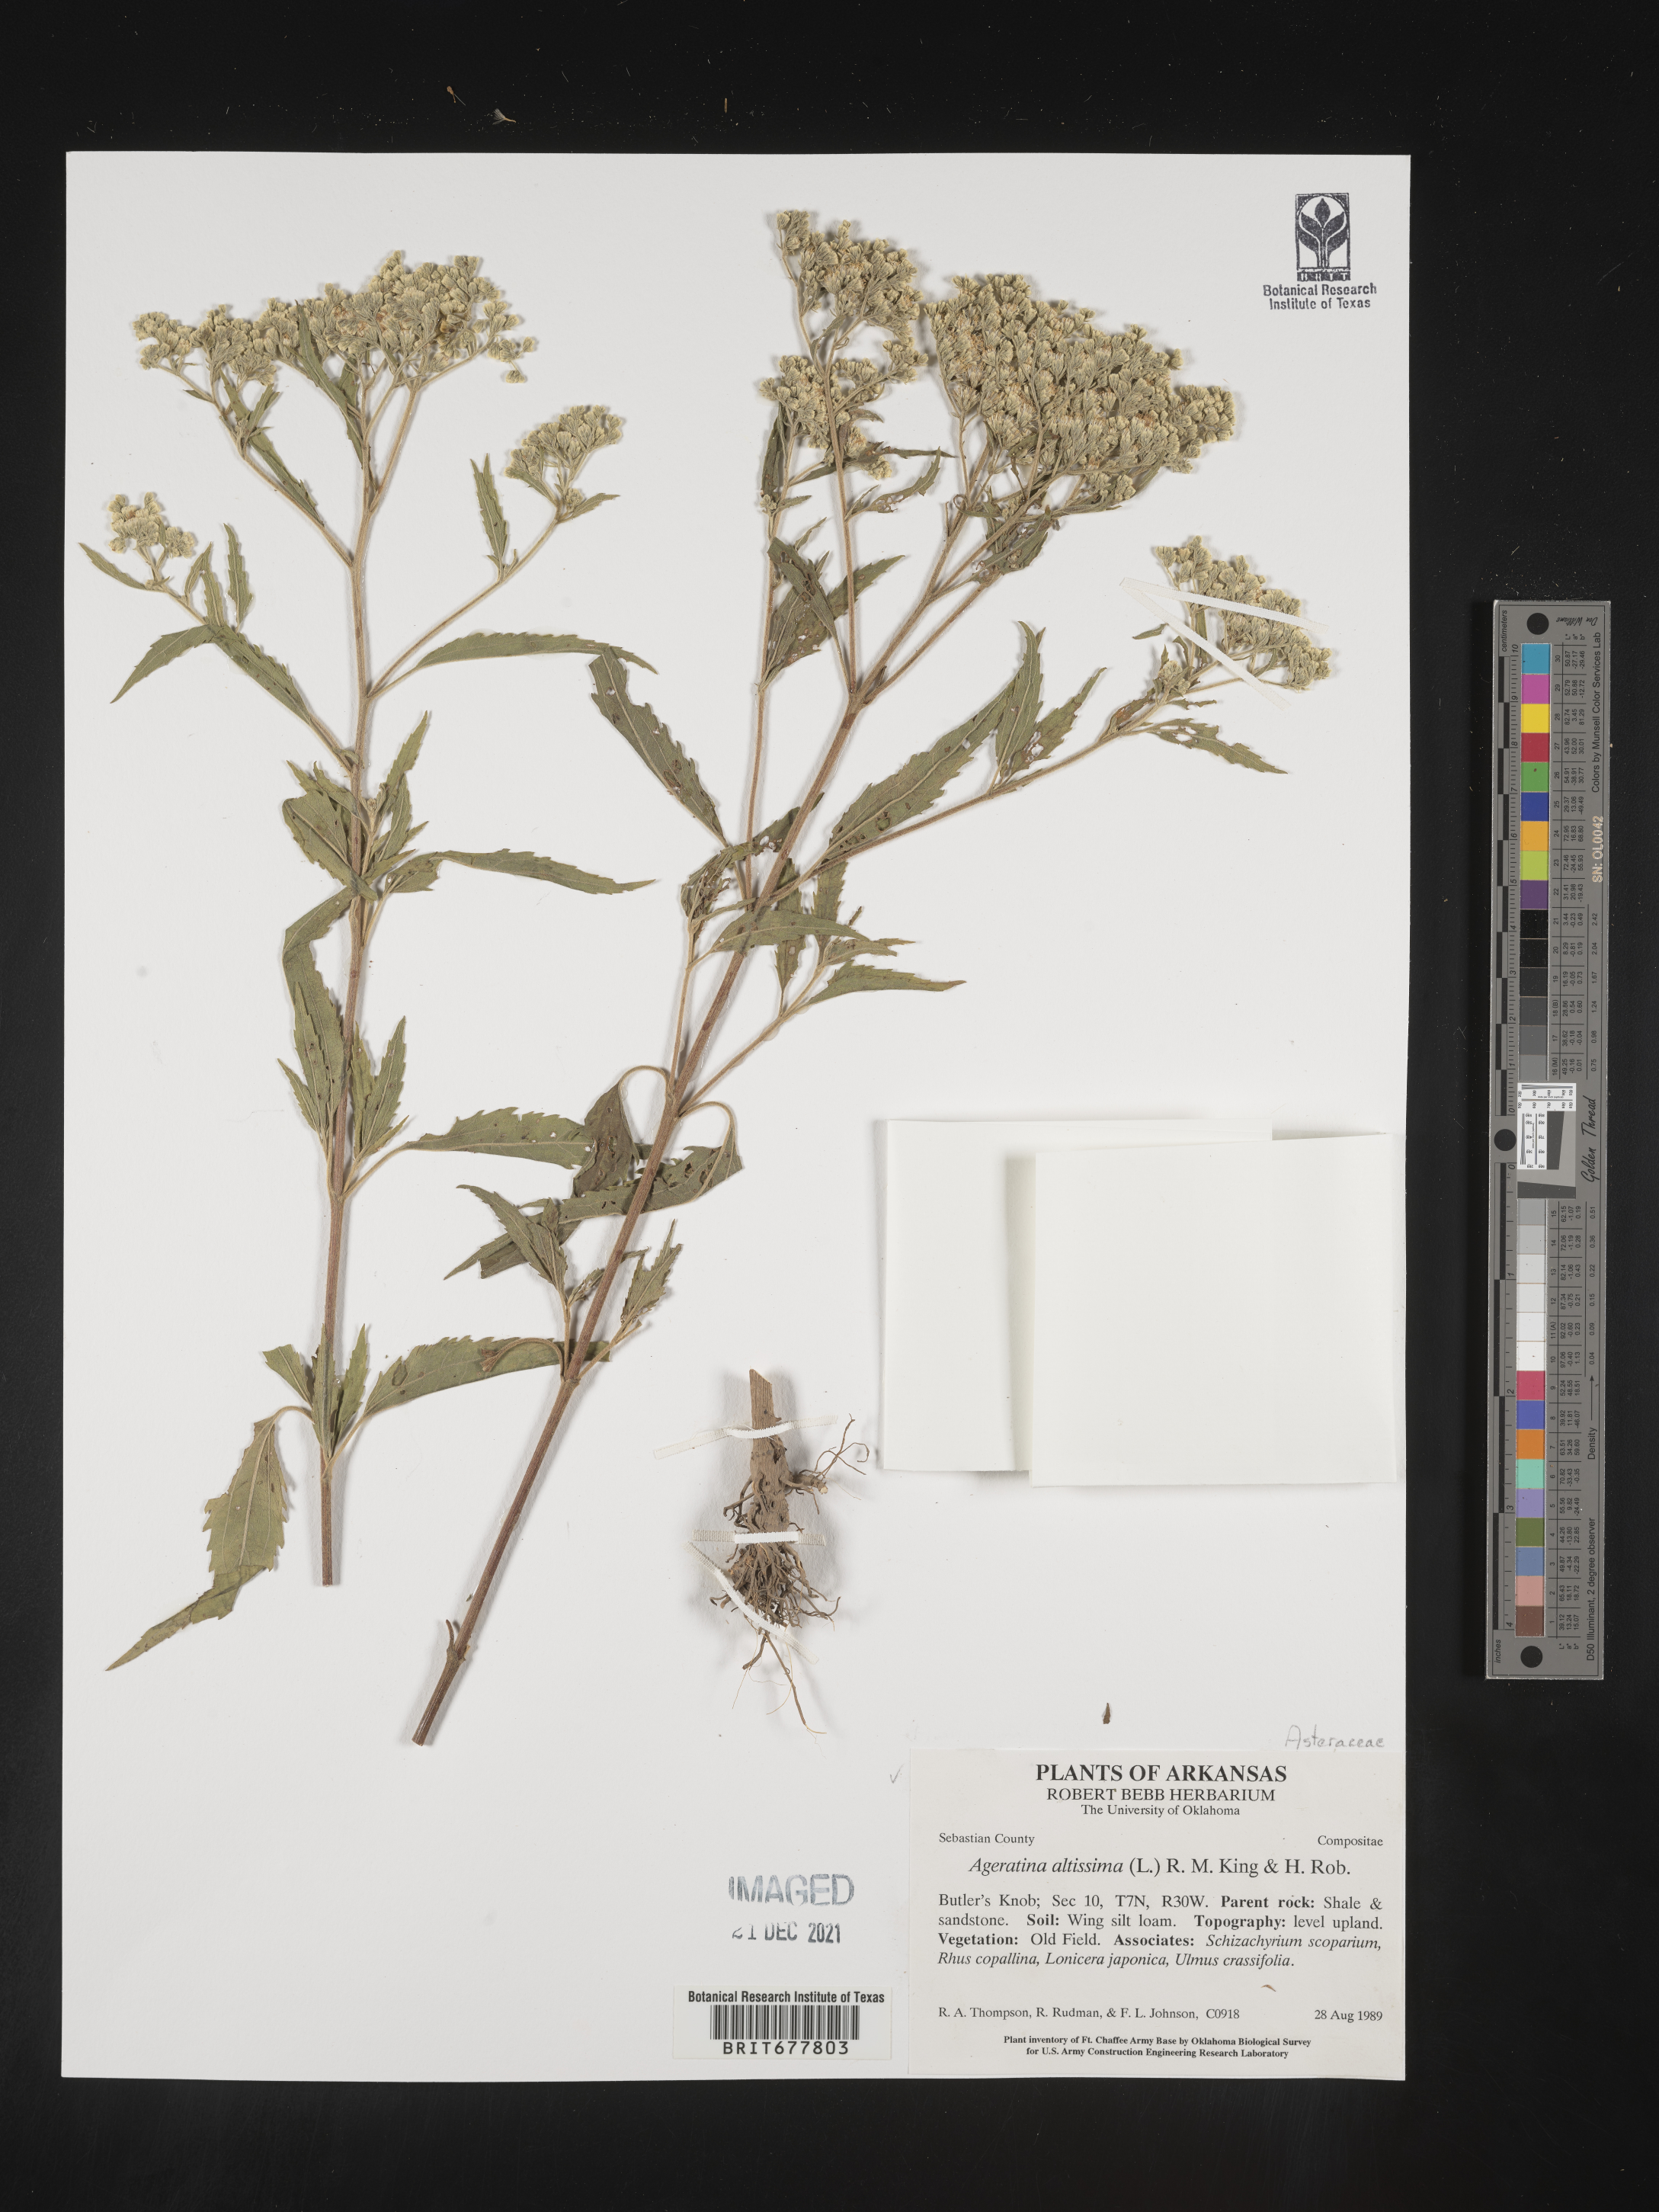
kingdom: Plantae
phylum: Tracheophyta
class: Magnoliopsida
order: Asterales
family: Asteraceae
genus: Ageratina
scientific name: Ageratina altissima
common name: White snakeroot
